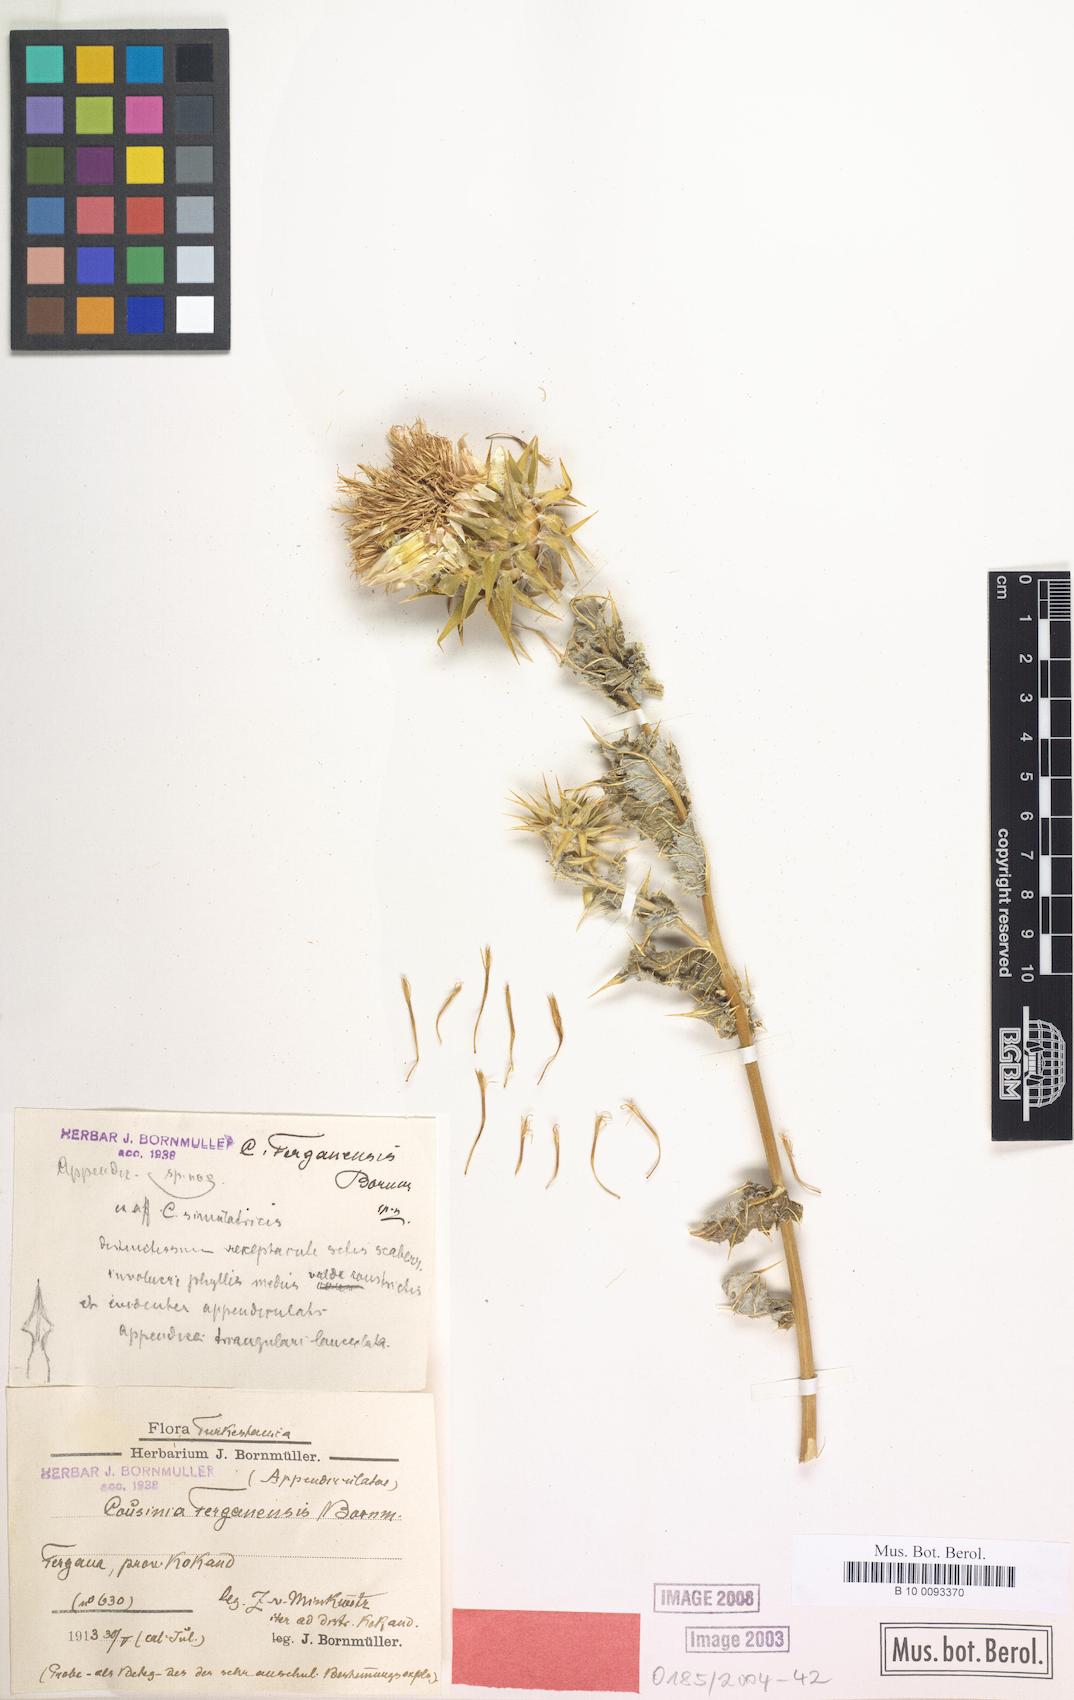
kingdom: Plantae
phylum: Tracheophyta
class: Magnoliopsida
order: Asterales
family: Asteraceae
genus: Cousinia
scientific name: Cousinia ferghanensis
